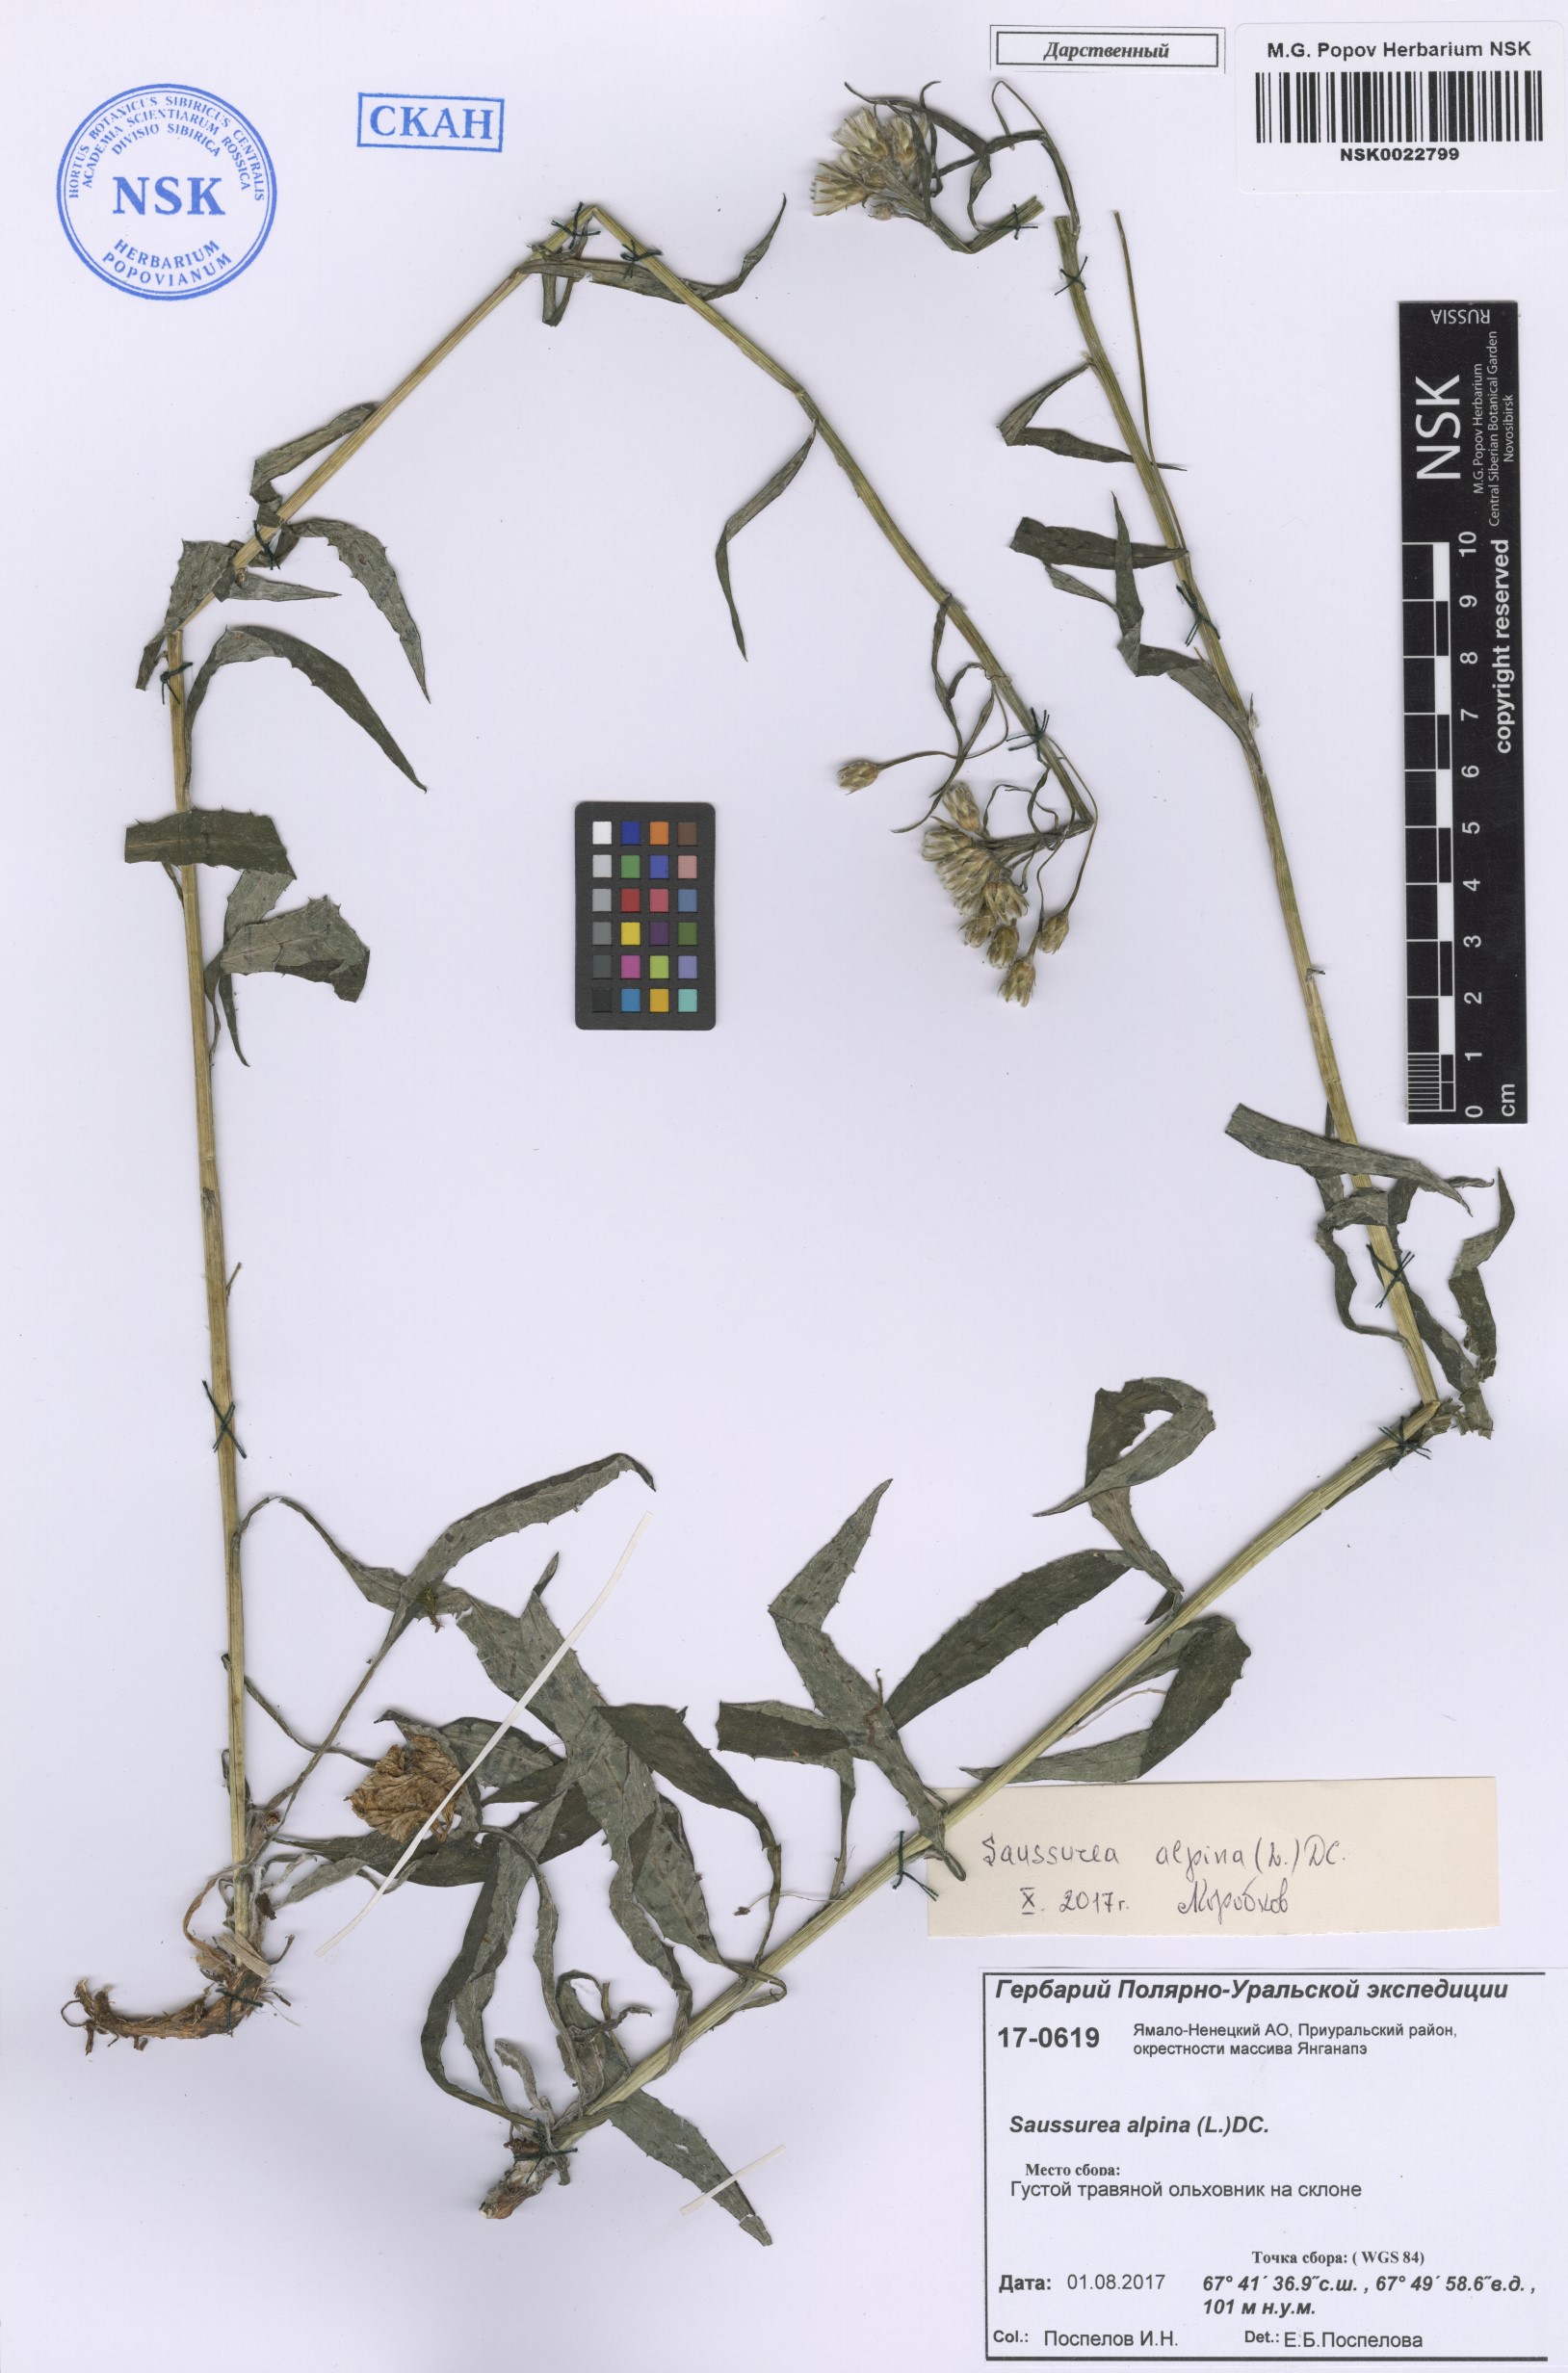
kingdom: Plantae
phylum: Tracheophyta
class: Magnoliopsida
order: Asterales
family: Asteraceae
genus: Saussurea
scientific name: Saussurea alpina
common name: Alpine saw-wort
